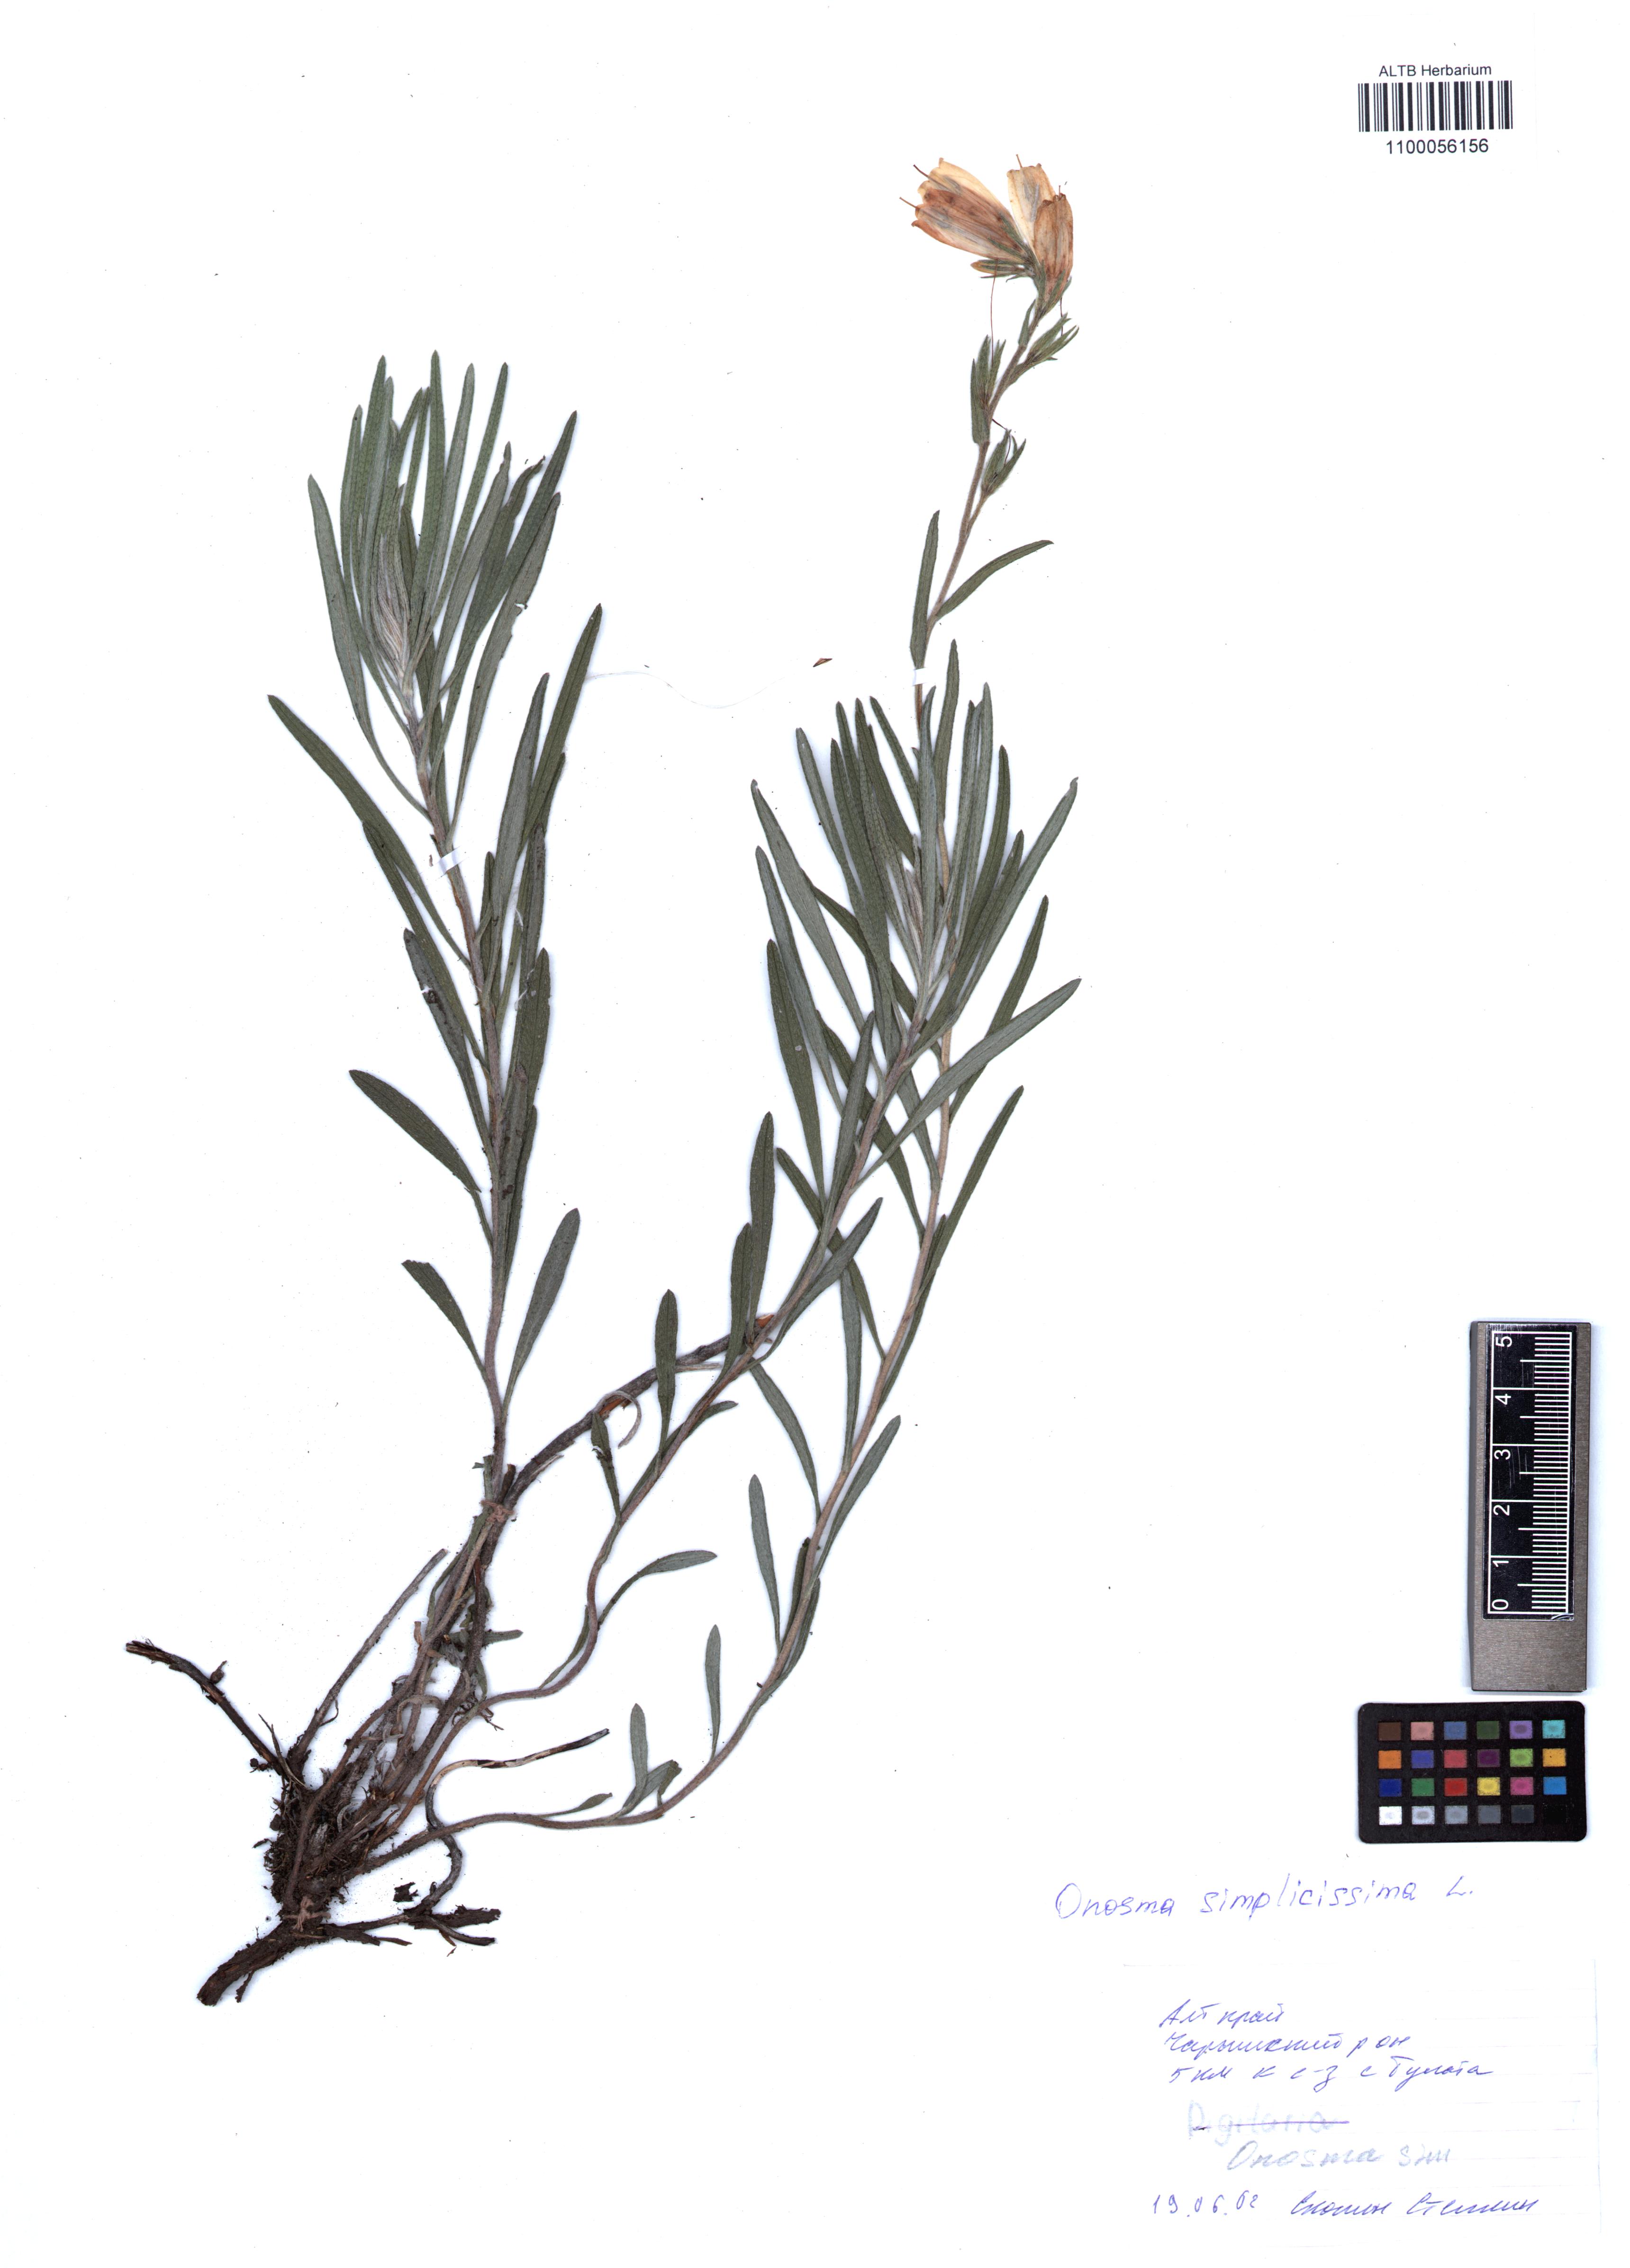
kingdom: Plantae
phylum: Tracheophyta
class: Magnoliopsida
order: Boraginales
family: Boraginaceae
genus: Onosma
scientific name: Onosma simplicissima
